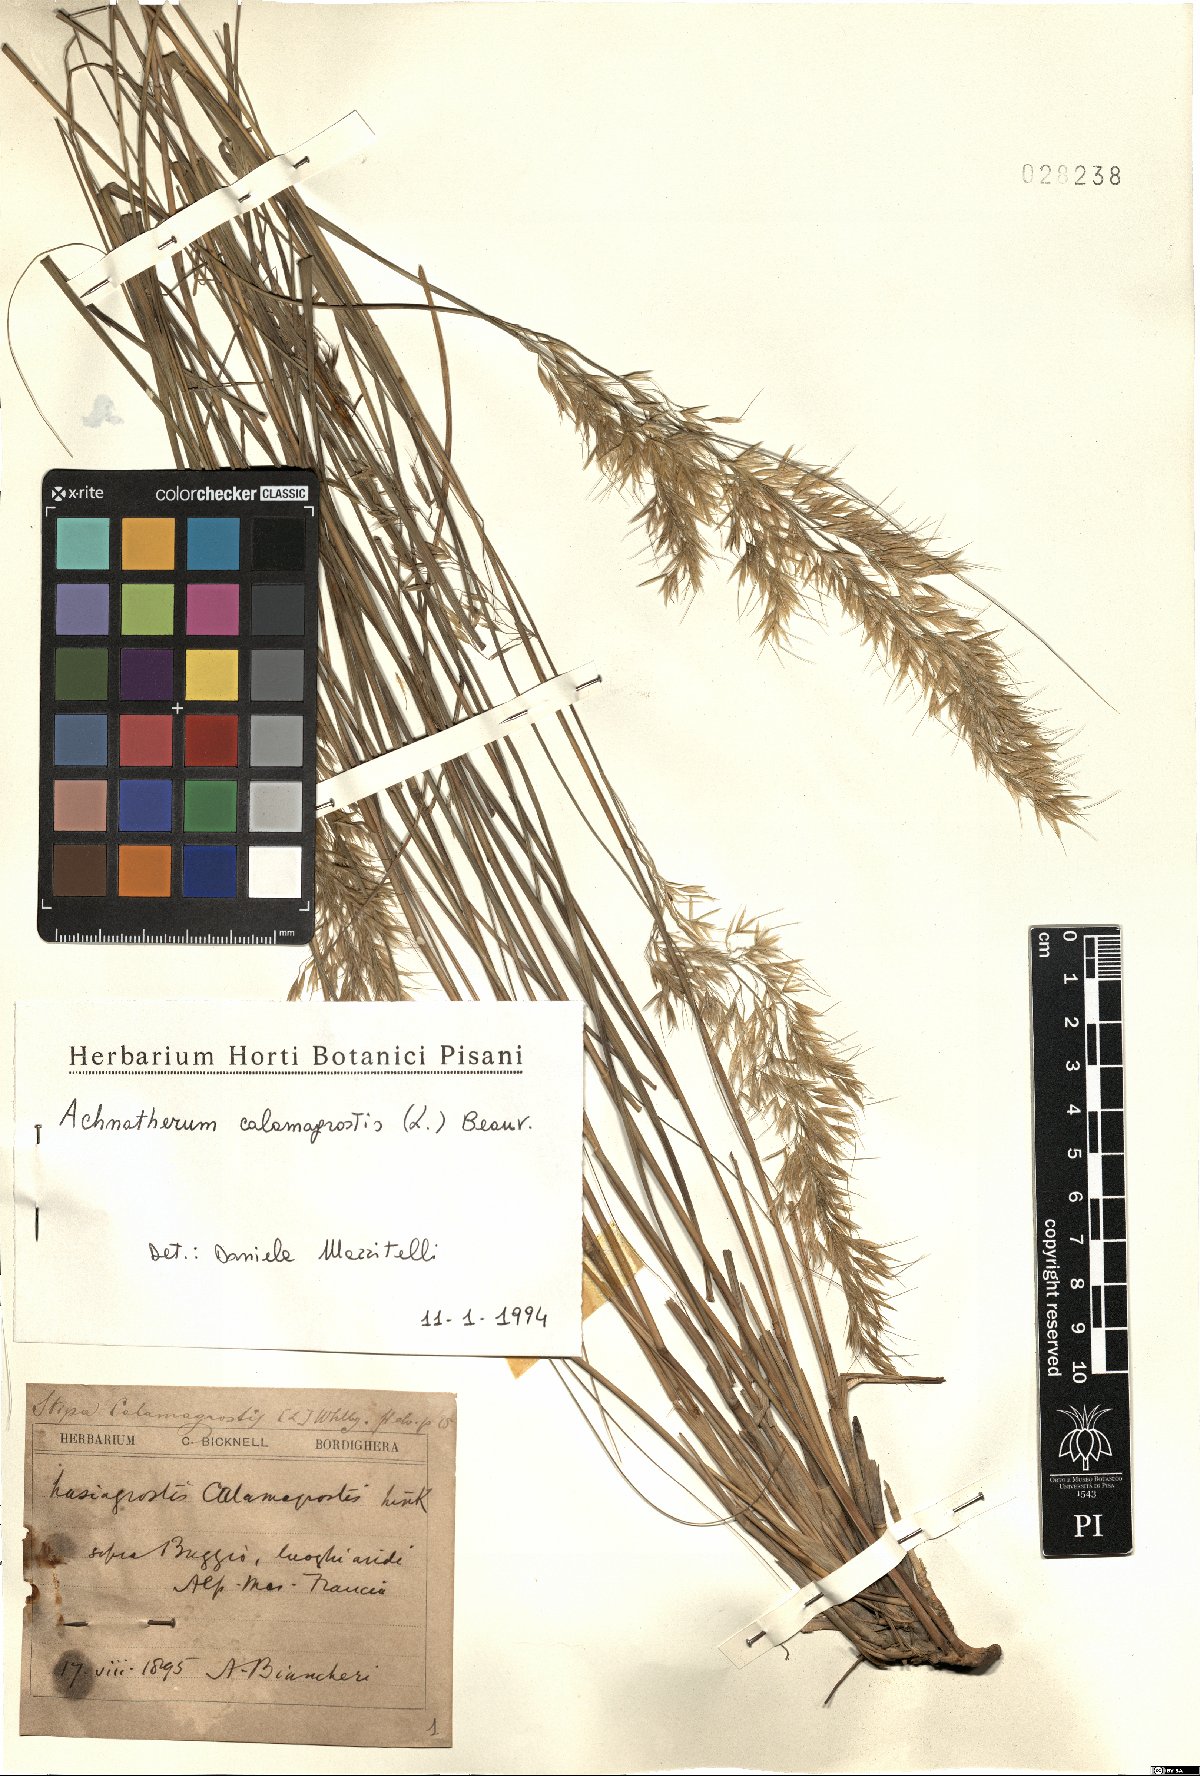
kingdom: Plantae
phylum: Tracheophyta
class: Liliopsida
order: Poales
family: Poaceae
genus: Achnatherum
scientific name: Achnatherum calamagrostis
